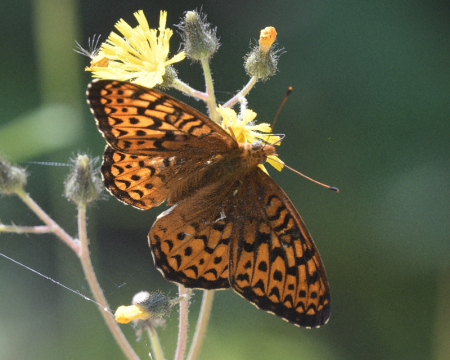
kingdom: Animalia
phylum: Arthropoda
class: Insecta
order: Lepidoptera
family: Nymphalidae
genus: Speyeria
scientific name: Speyeria atlantis
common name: Atlantis Fritillary
